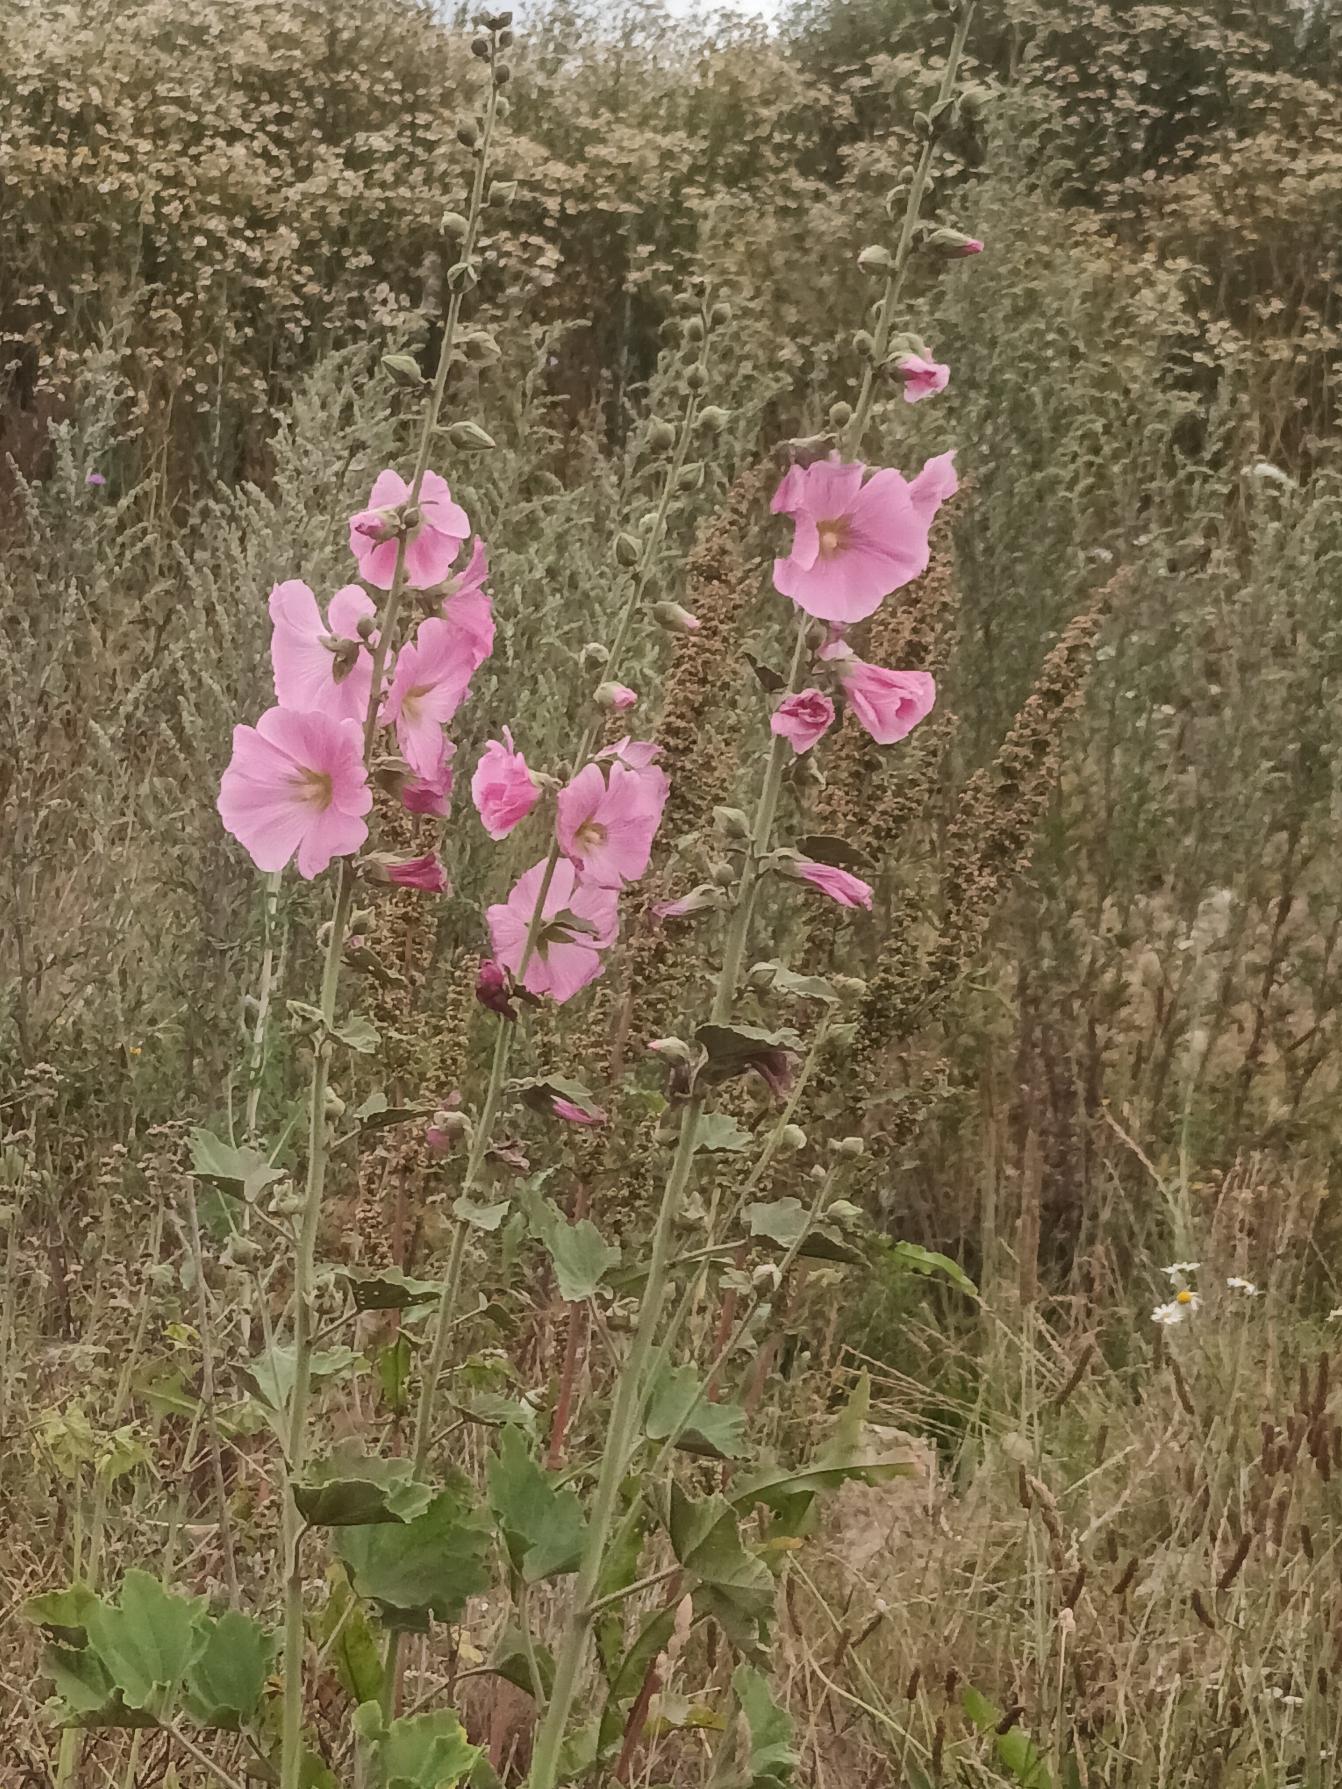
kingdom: Plantae
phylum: Tracheophyta
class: Magnoliopsida
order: Malvales
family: Malvaceae
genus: Alcea
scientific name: Alcea rosea
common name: Have-stokrose
